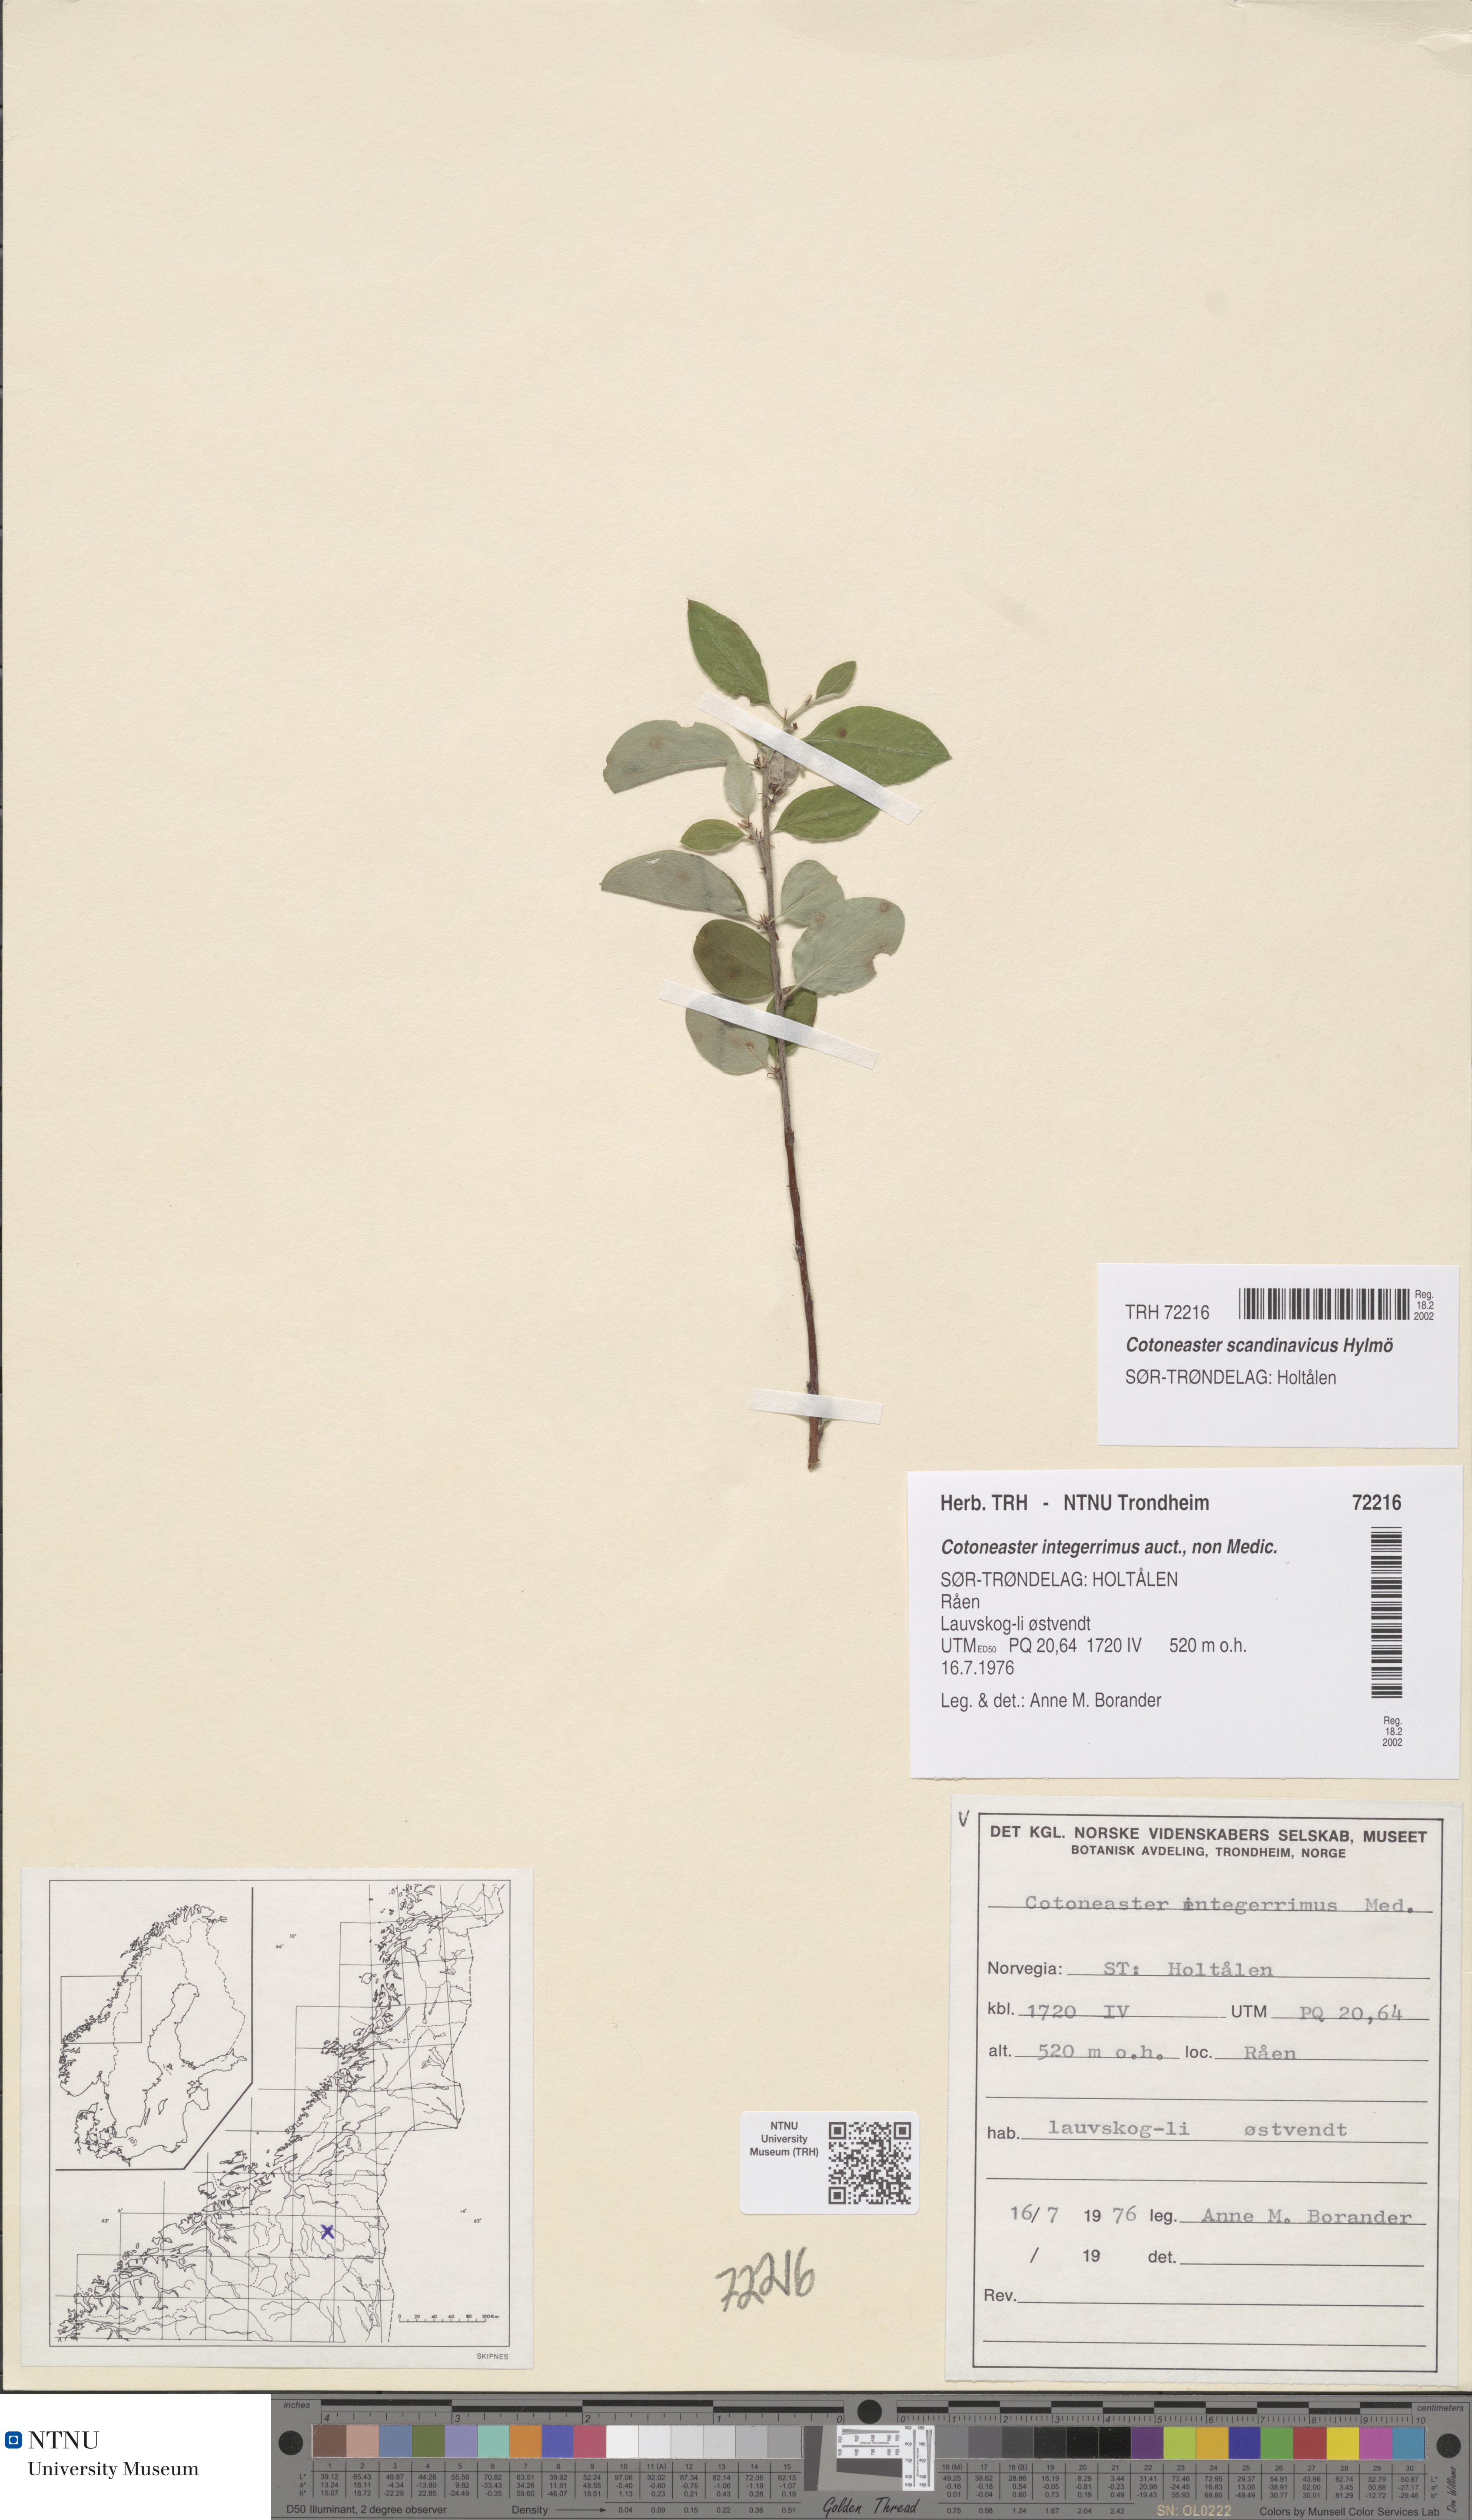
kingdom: Plantae
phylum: Tracheophyta
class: Magnoliopsida
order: Rosales
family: Rosaceae
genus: Cotoneaster
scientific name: Cotoneaster integerrimus
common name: Wild cotoneaster
